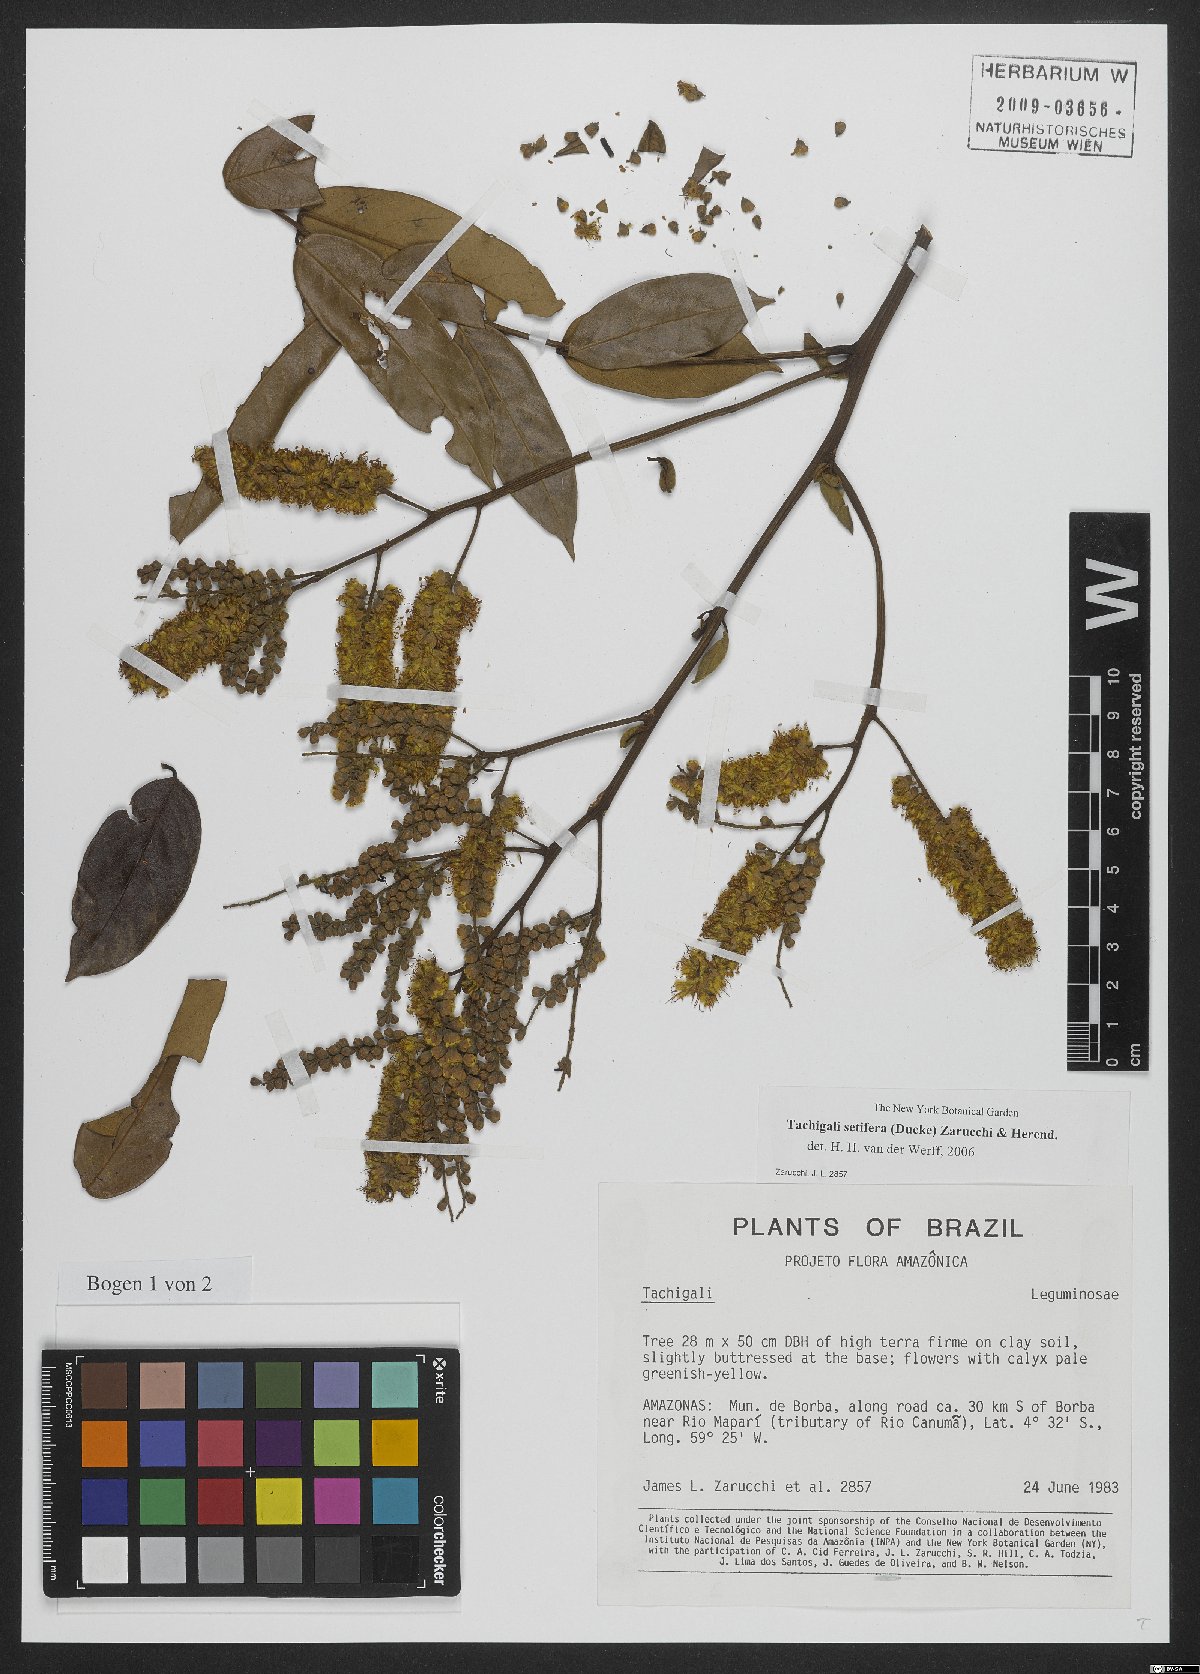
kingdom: Plantae
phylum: Tracheophyta
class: Magnoliopsida
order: Fabales
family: Fabaceae
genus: Tachigali
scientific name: Tachigali setifera
